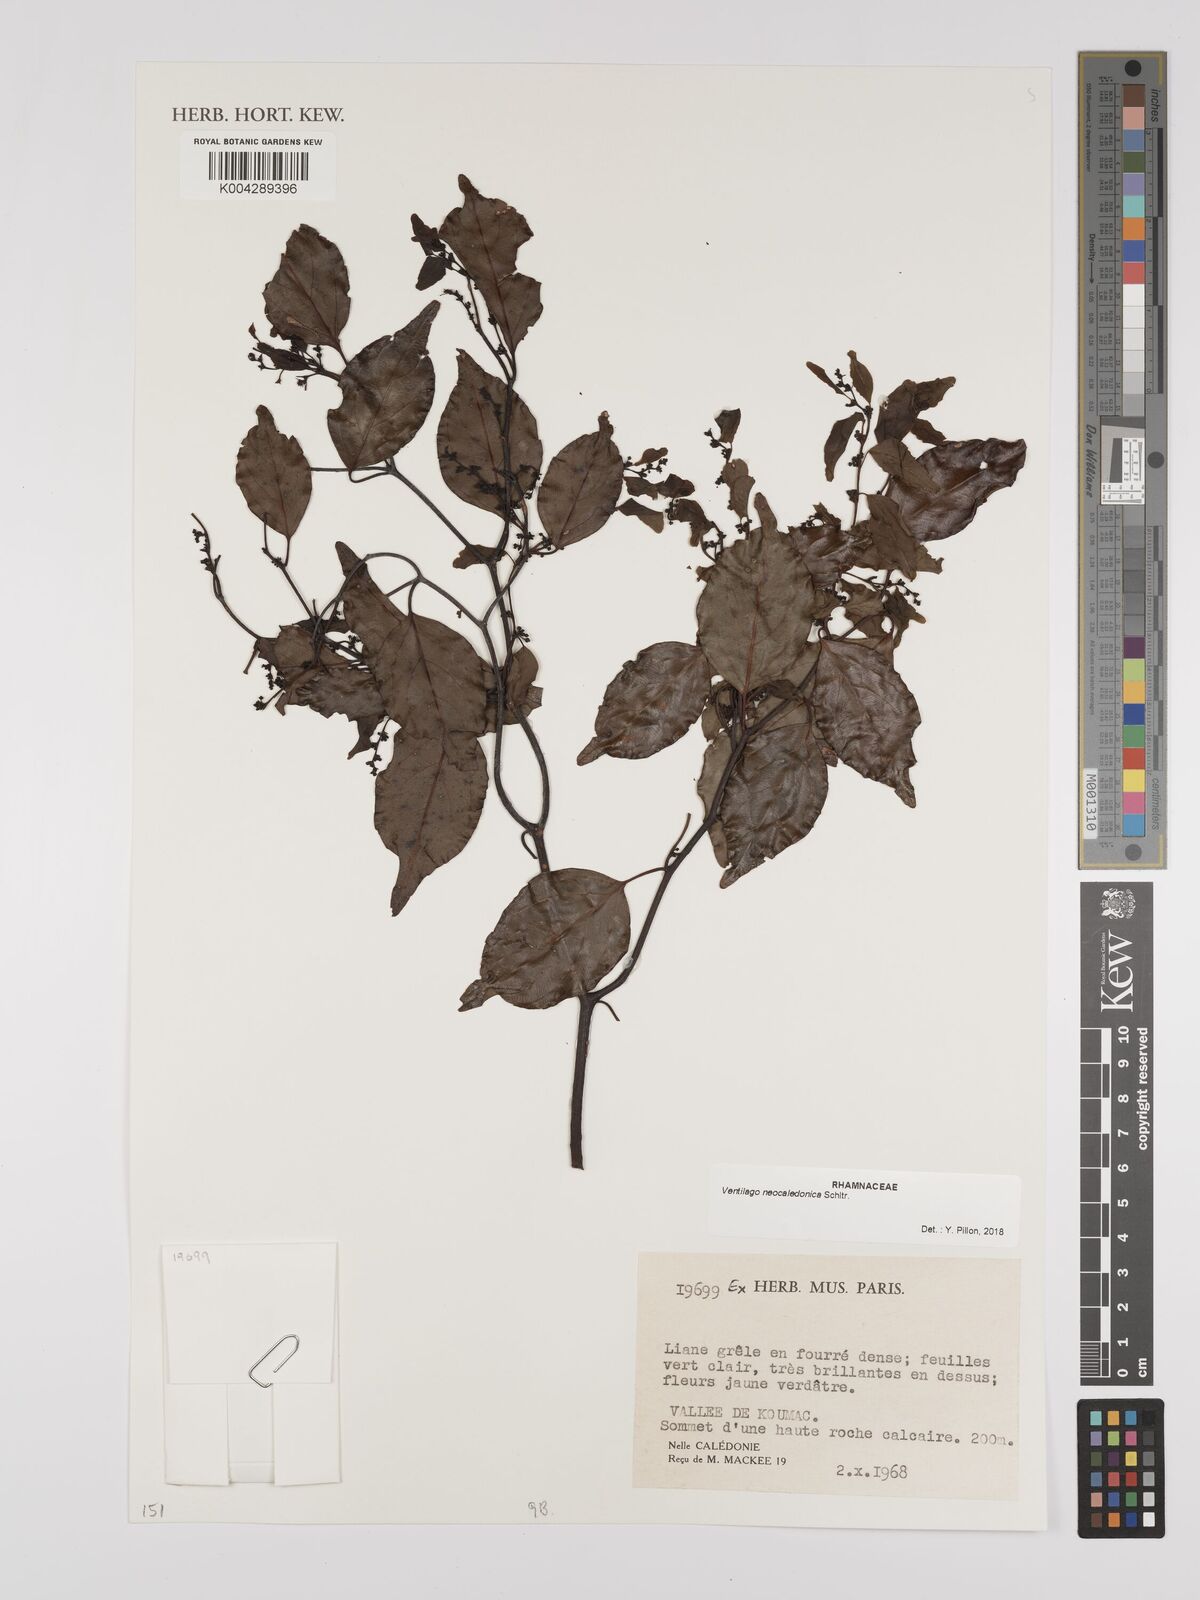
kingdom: Plantae
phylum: Tracheophyta
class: Magnoliopsida
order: Rosales
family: Rhamnaceae
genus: Ventilago
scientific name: Ventilago neocaledonica
